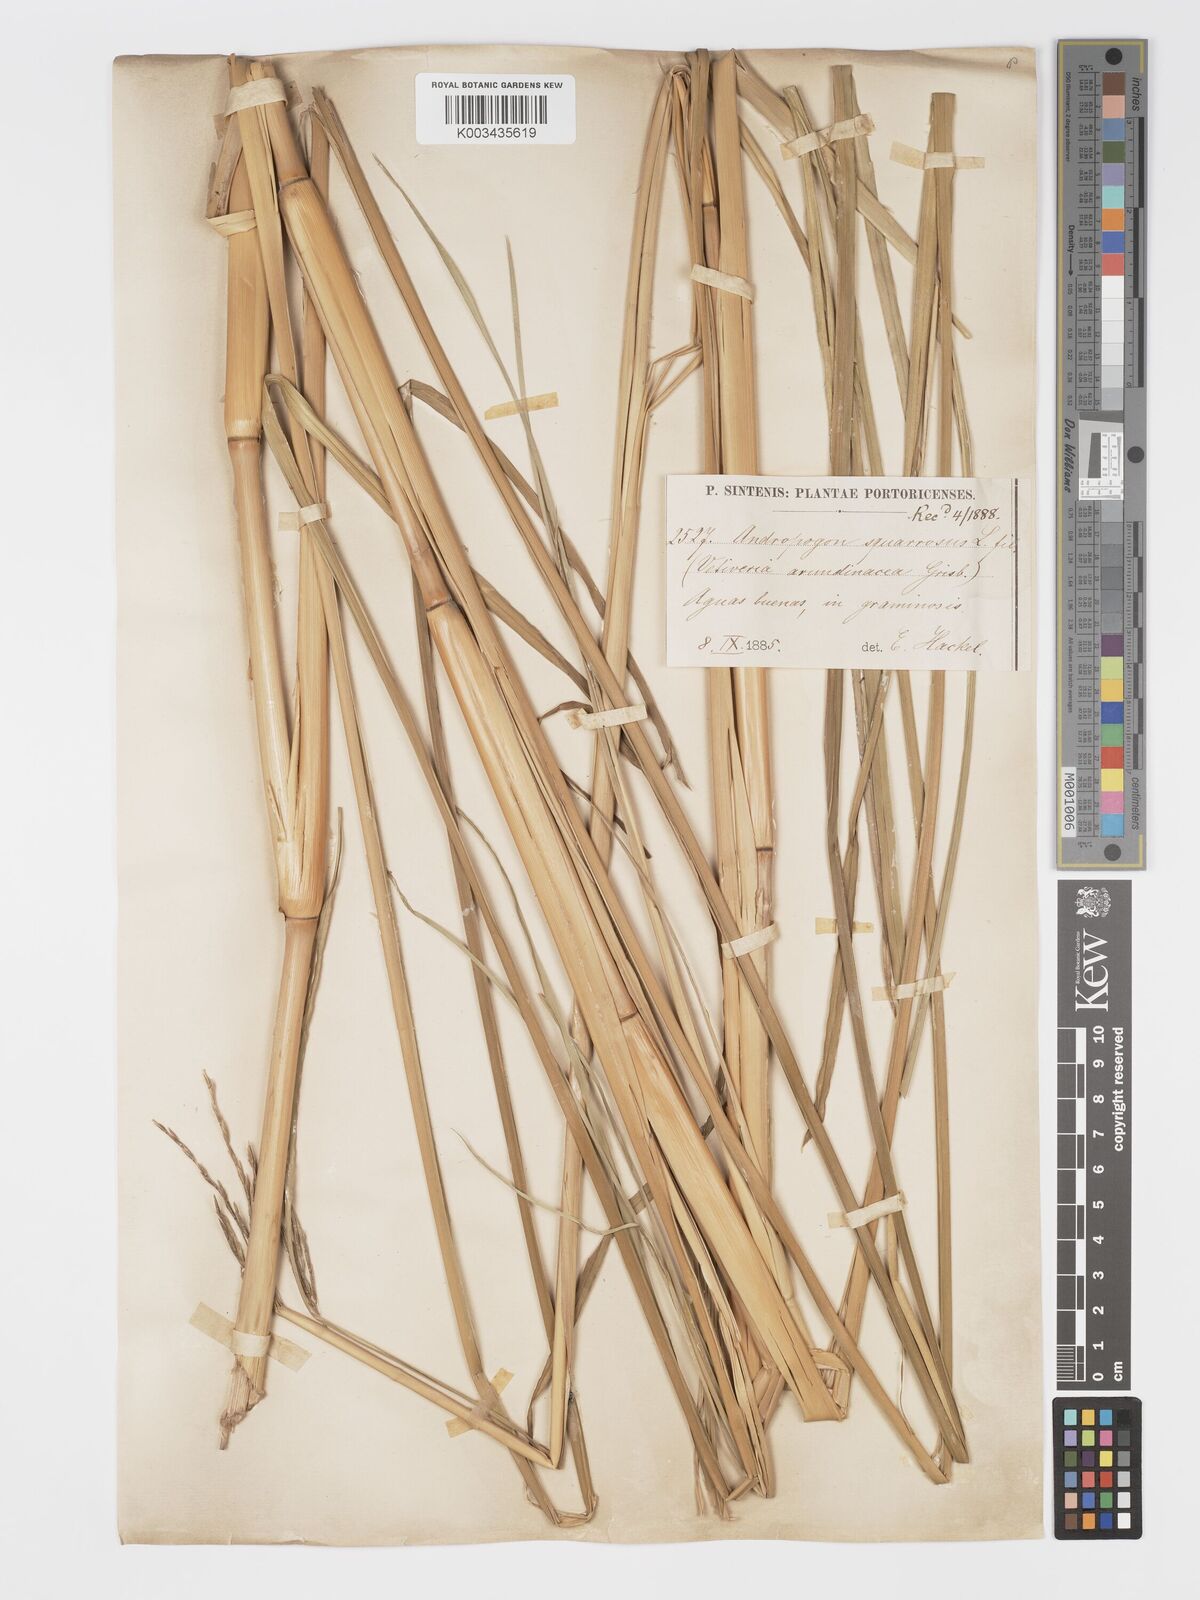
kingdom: Plantae
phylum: Tracheophyta
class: Liliopsida
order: Poales
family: Poaceae
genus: Chrysopogon
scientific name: Chrysopogon zizanioides
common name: False beardgrass
